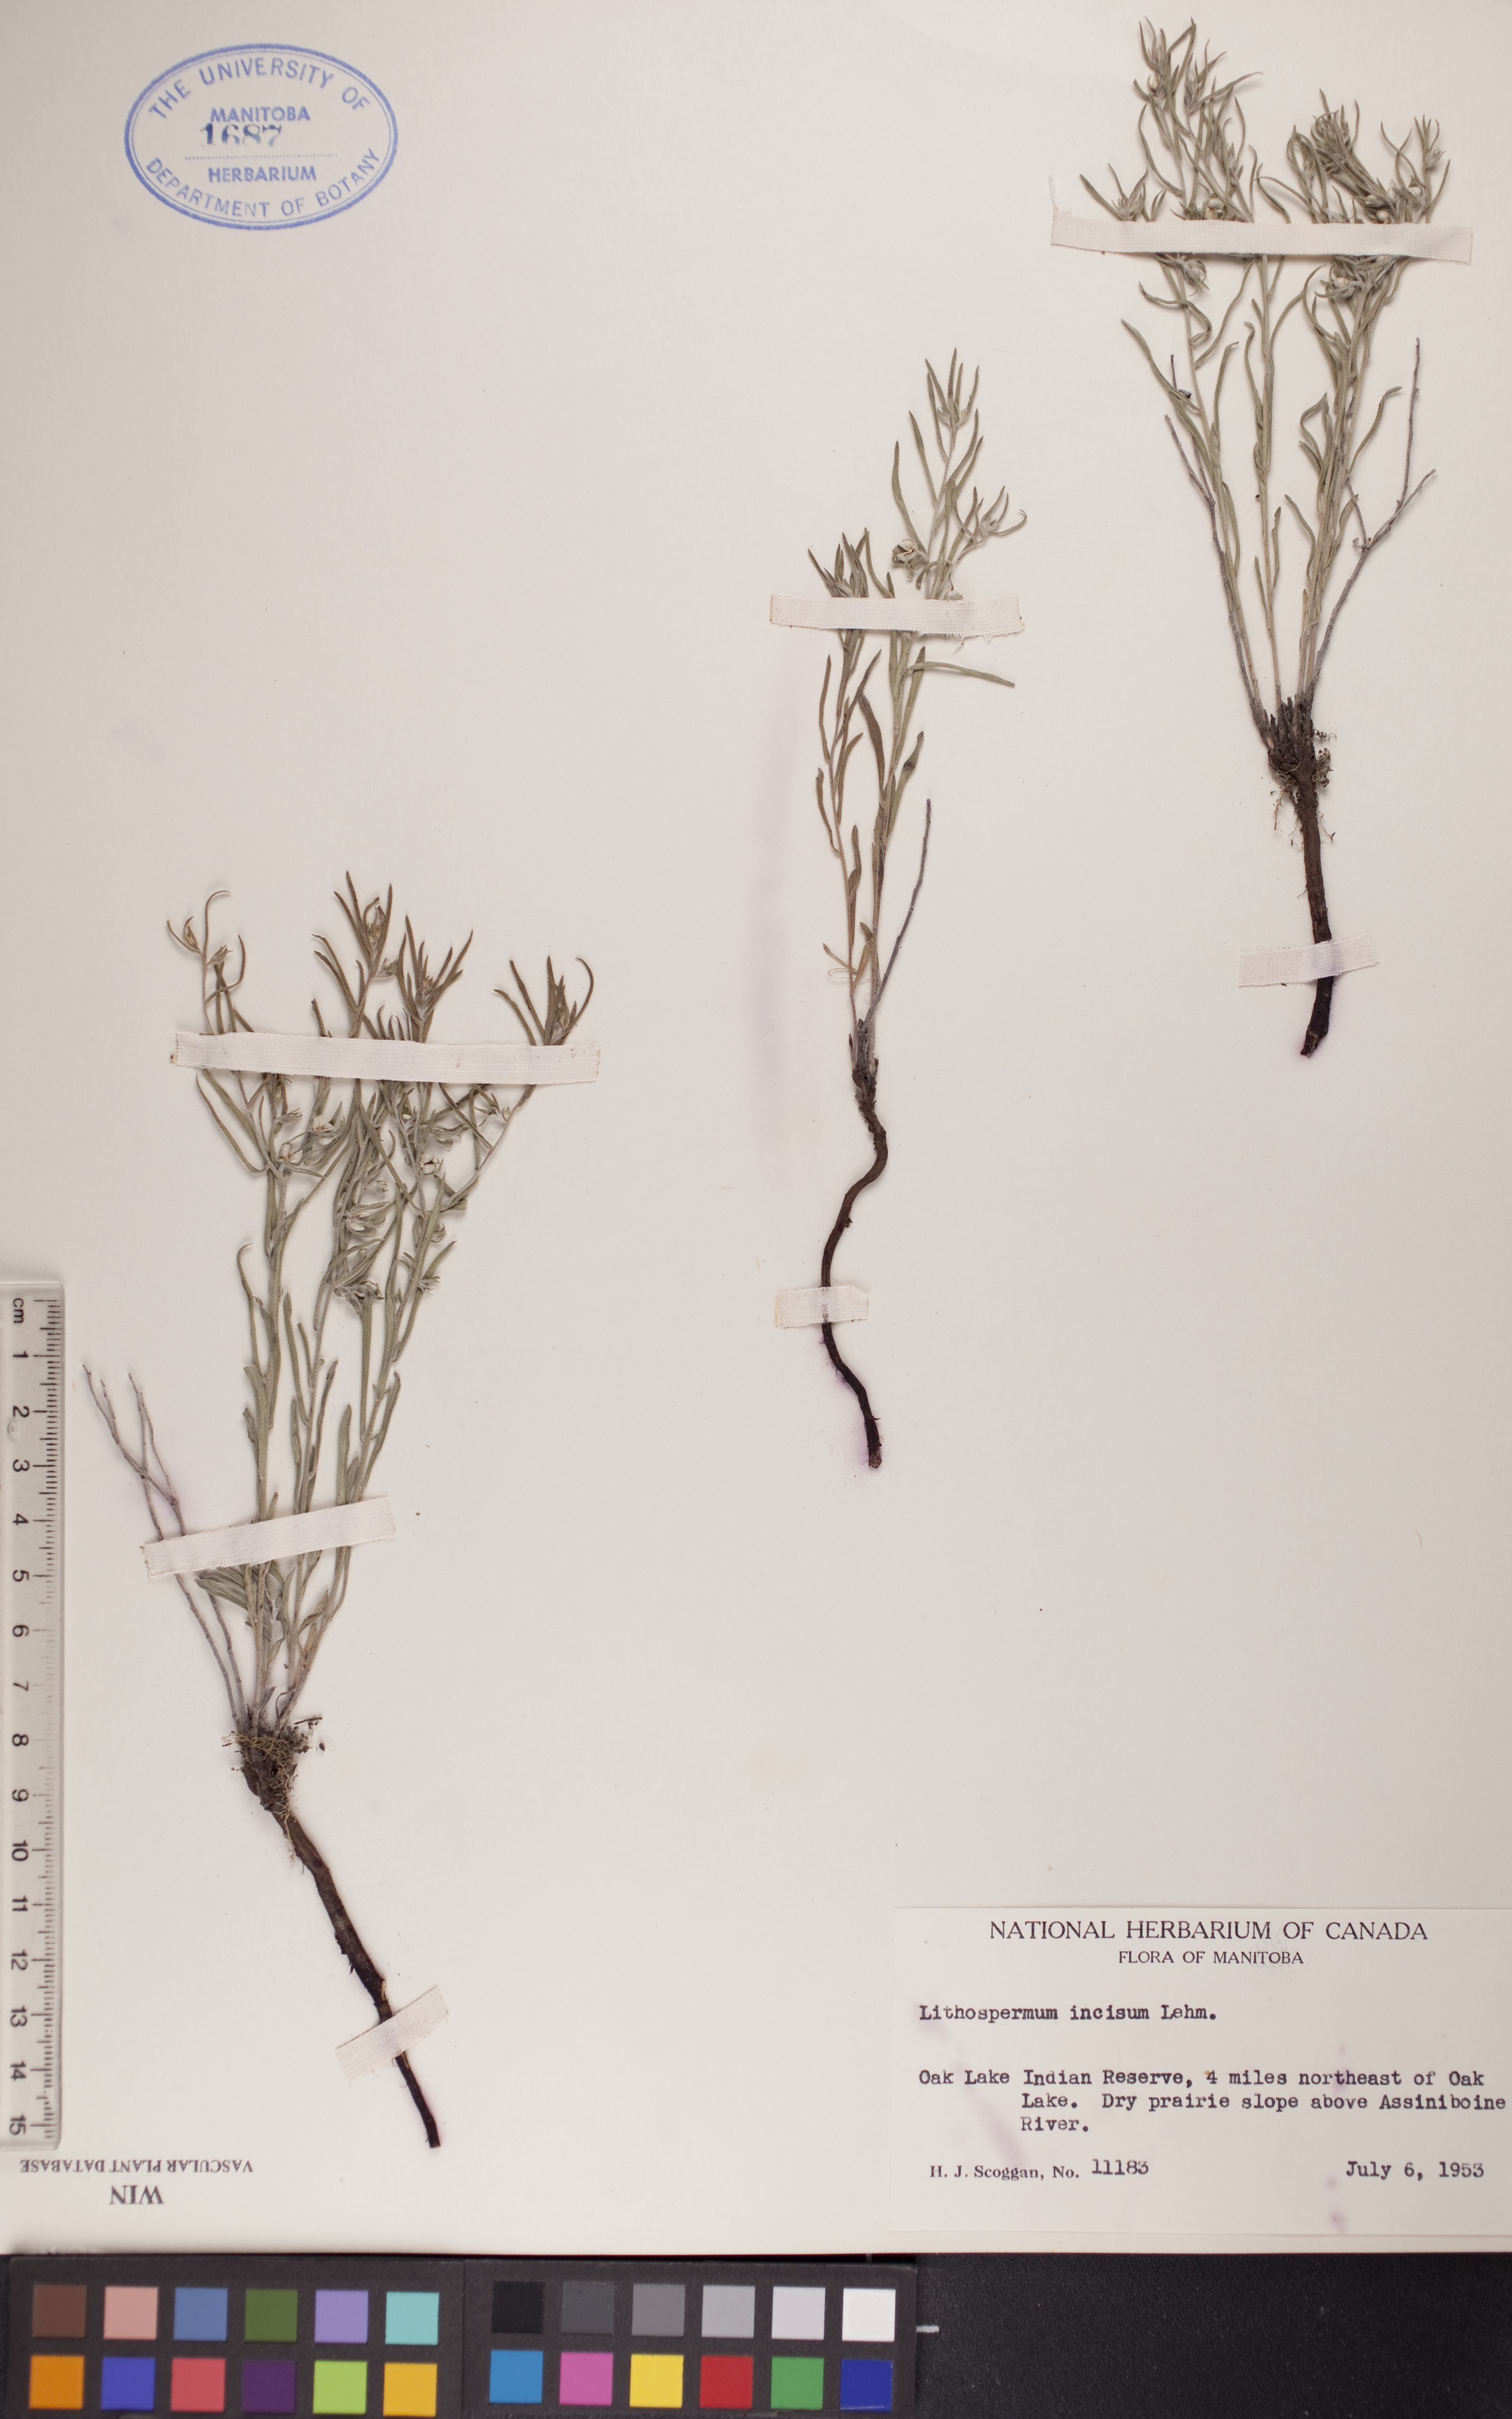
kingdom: Plantae
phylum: Tracheophyta
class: Magnoliopsida
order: Boraginales
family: Boraginaceae
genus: Lithospermum
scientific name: Lithospermum incisum
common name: Fringed gromwell
